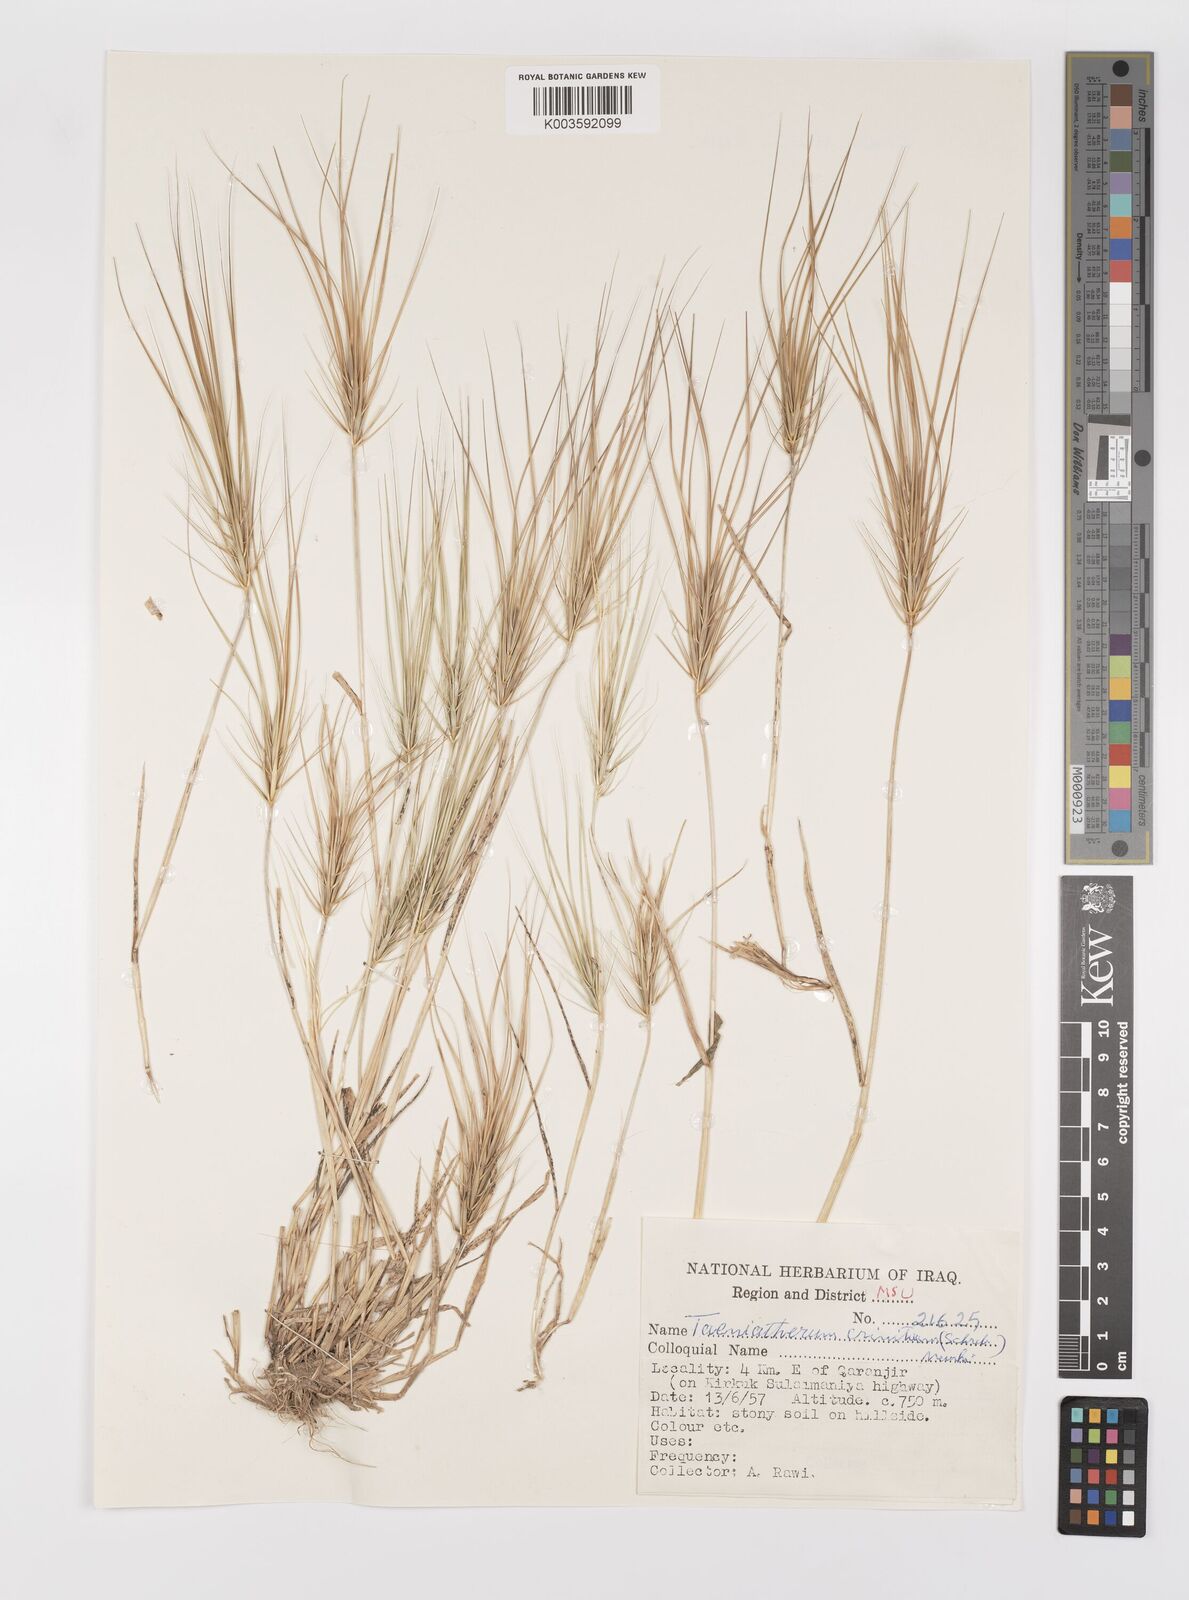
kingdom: Plantae
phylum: Tracheophyta
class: Liliopsida
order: Poales
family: Poaceae
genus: Taeniatherum
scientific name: Taeniatherum caput-medusae
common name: Medusahead
